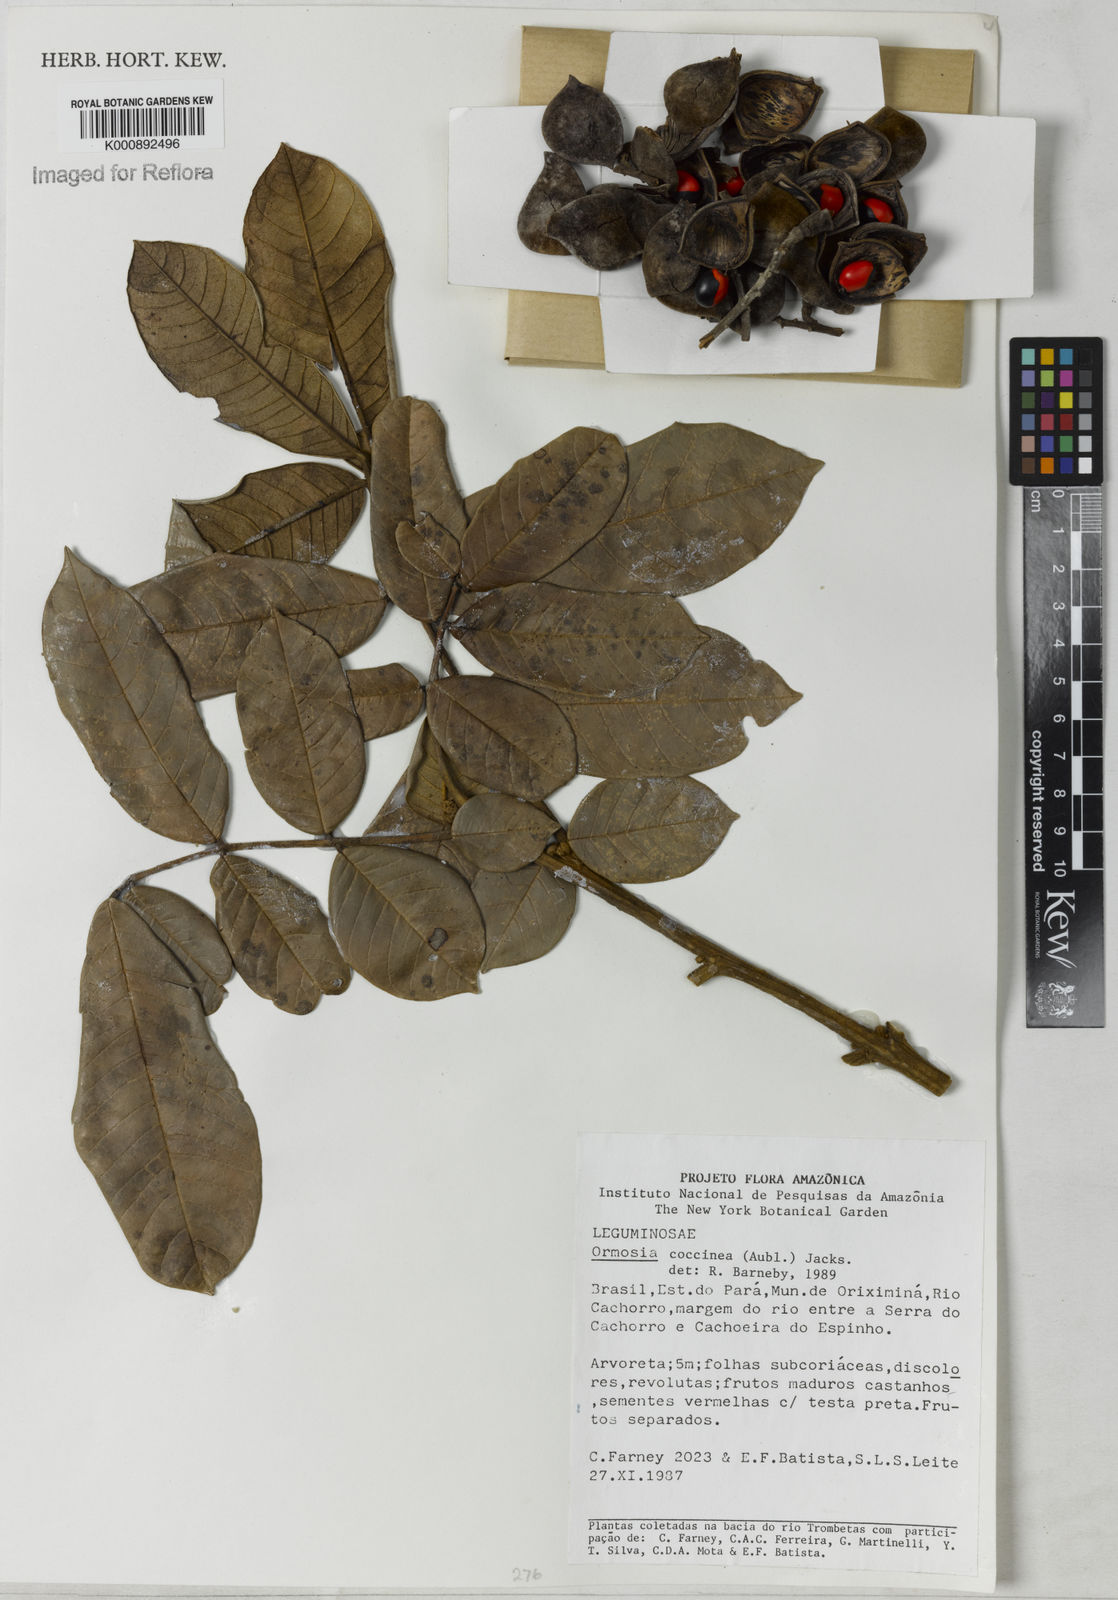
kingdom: Plantae
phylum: Tracheophyta
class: Magnoliopsida
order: Fabales
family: Fabaceae
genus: Ormosia
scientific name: Ormosia coccinea
